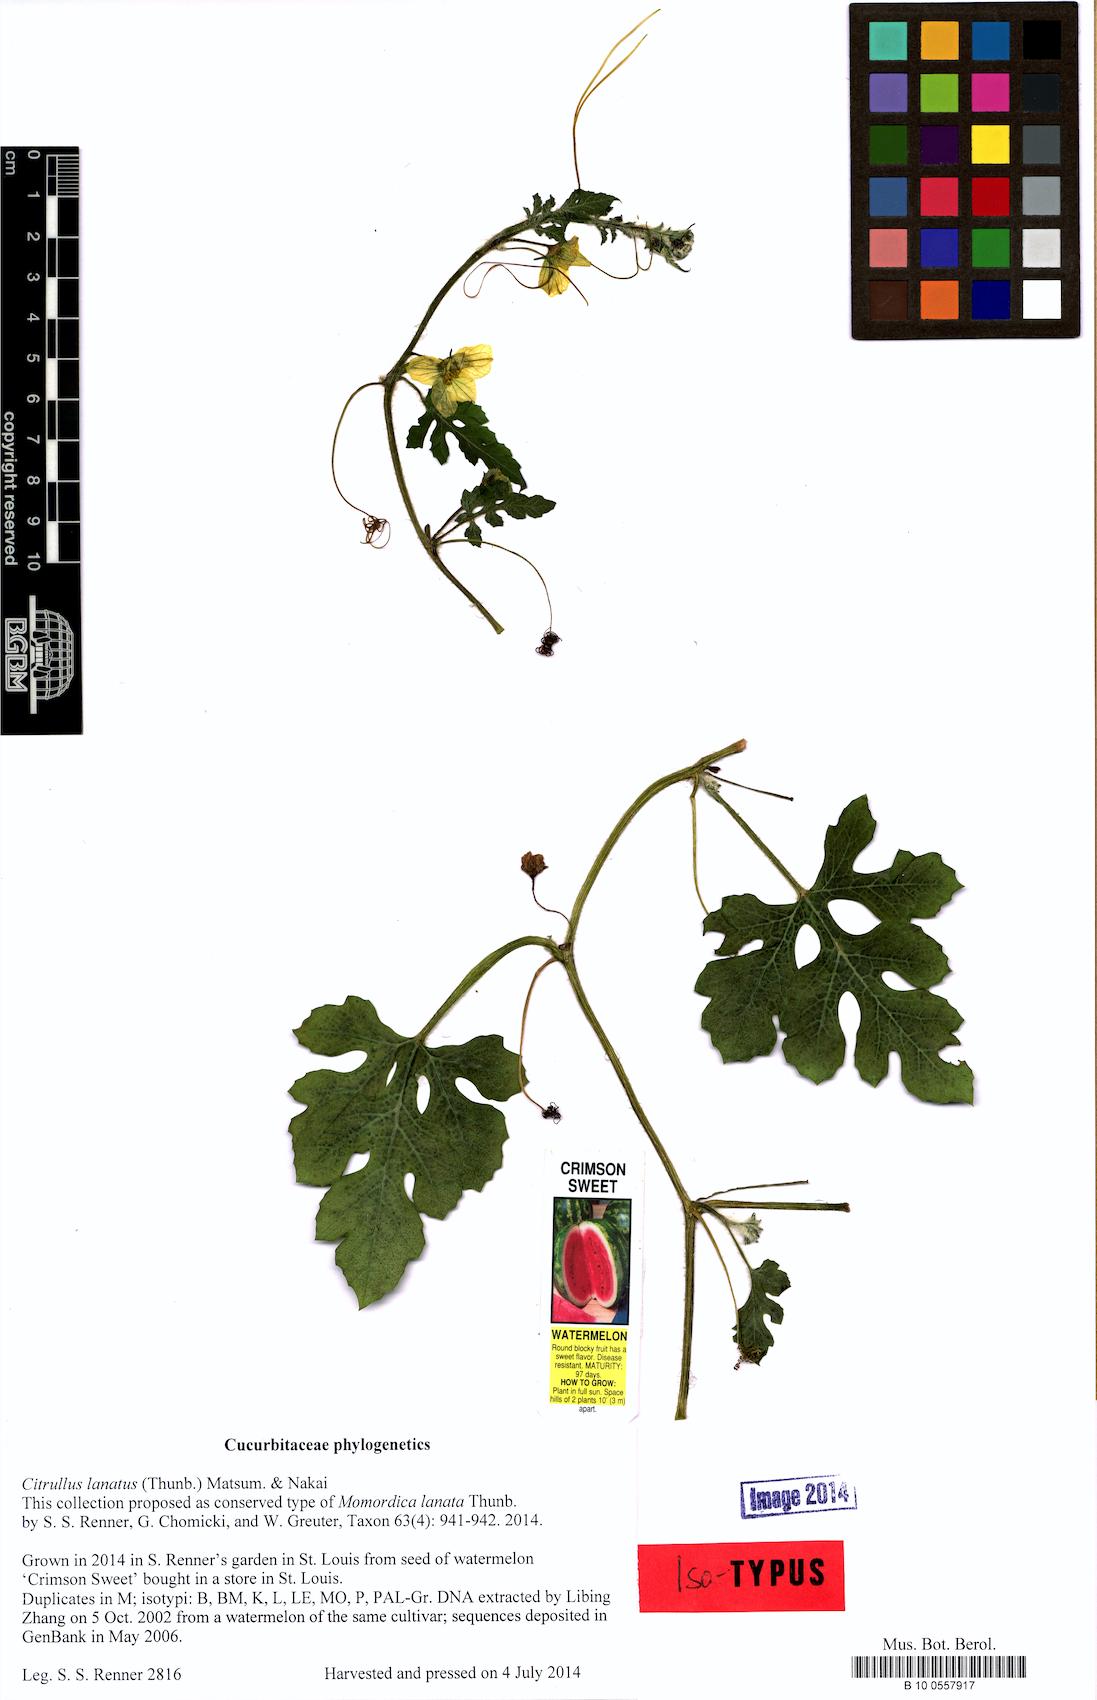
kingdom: Plantae
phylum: Tracheophyta
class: Magnoliopsida
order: Cucurbitales
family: Cucurbitaceae
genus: Citrullus
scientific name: Citrullus lanatus
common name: Watermelon
